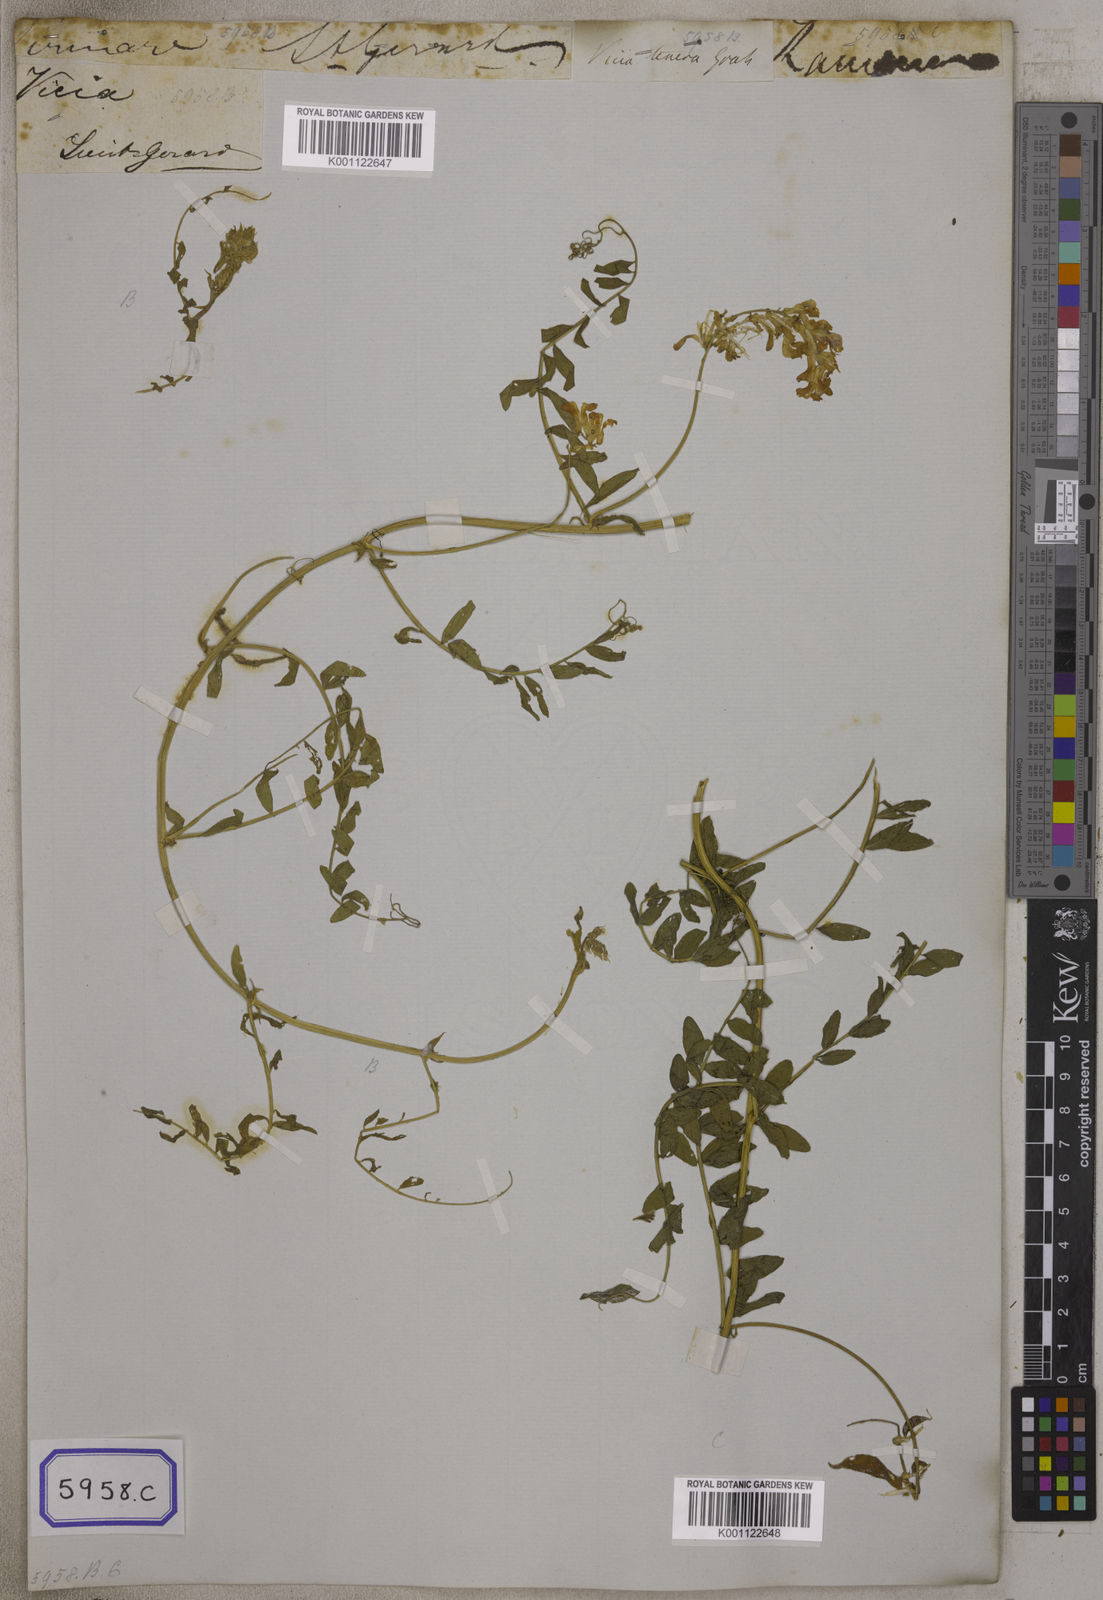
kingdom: Plantae
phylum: Tracheophyta
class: Magnoliopsida
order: Fabales
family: Fabaceae
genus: Vicia
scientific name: Vicia
